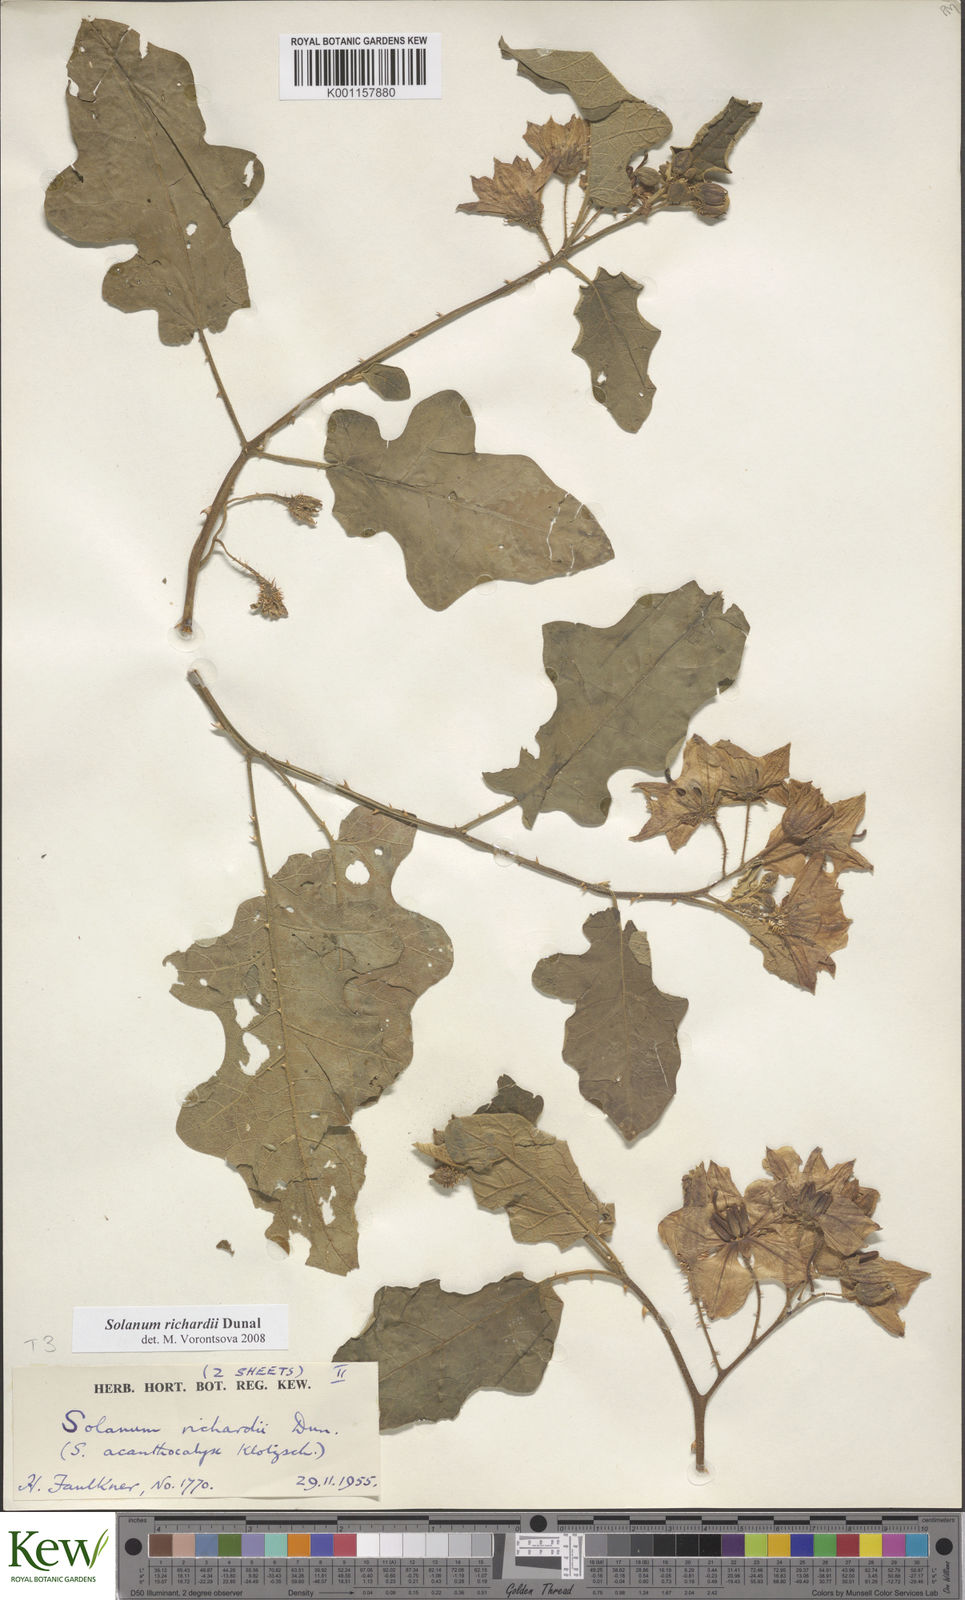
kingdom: Plantae
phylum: Tracheophyta
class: Magnoliopsida
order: Solanales
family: Solanaceae
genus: Solanum
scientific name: Solanum richardii
